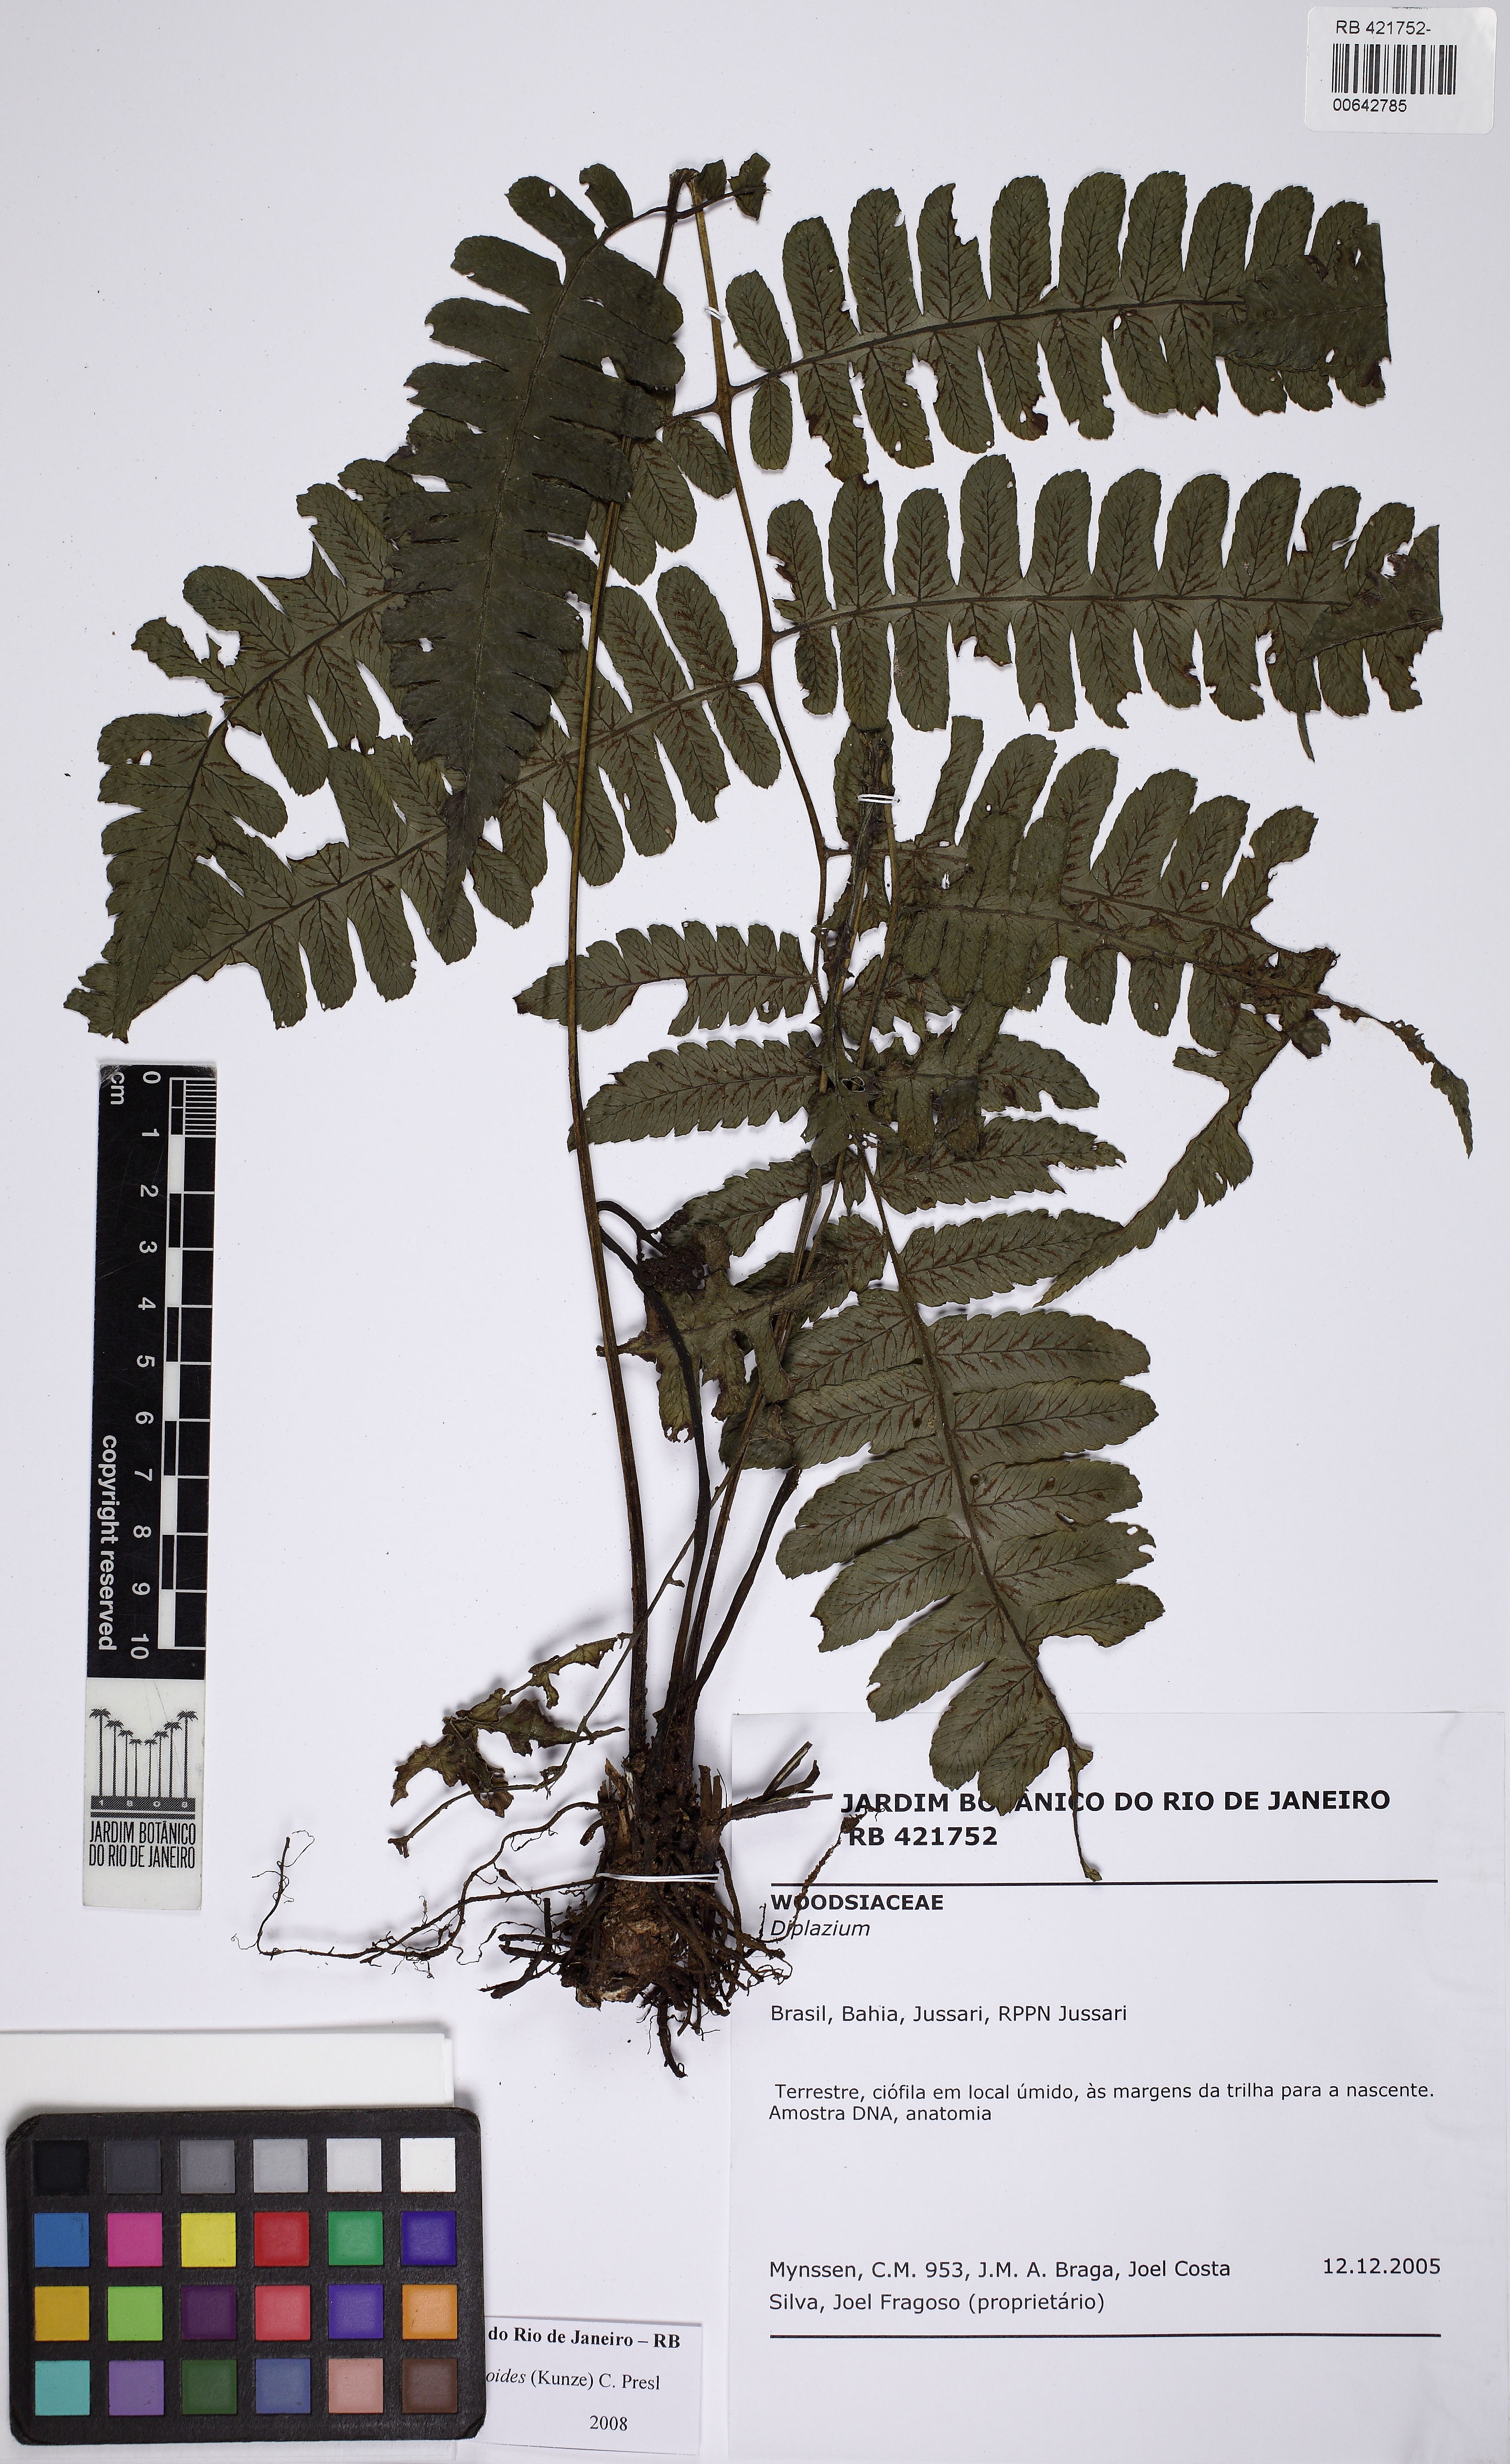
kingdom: Plantae
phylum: Tracheophyta
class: Polypodiopsida
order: Polypodiales
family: Athyriaceae
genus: Diplazium
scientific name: Diplazium expansum
